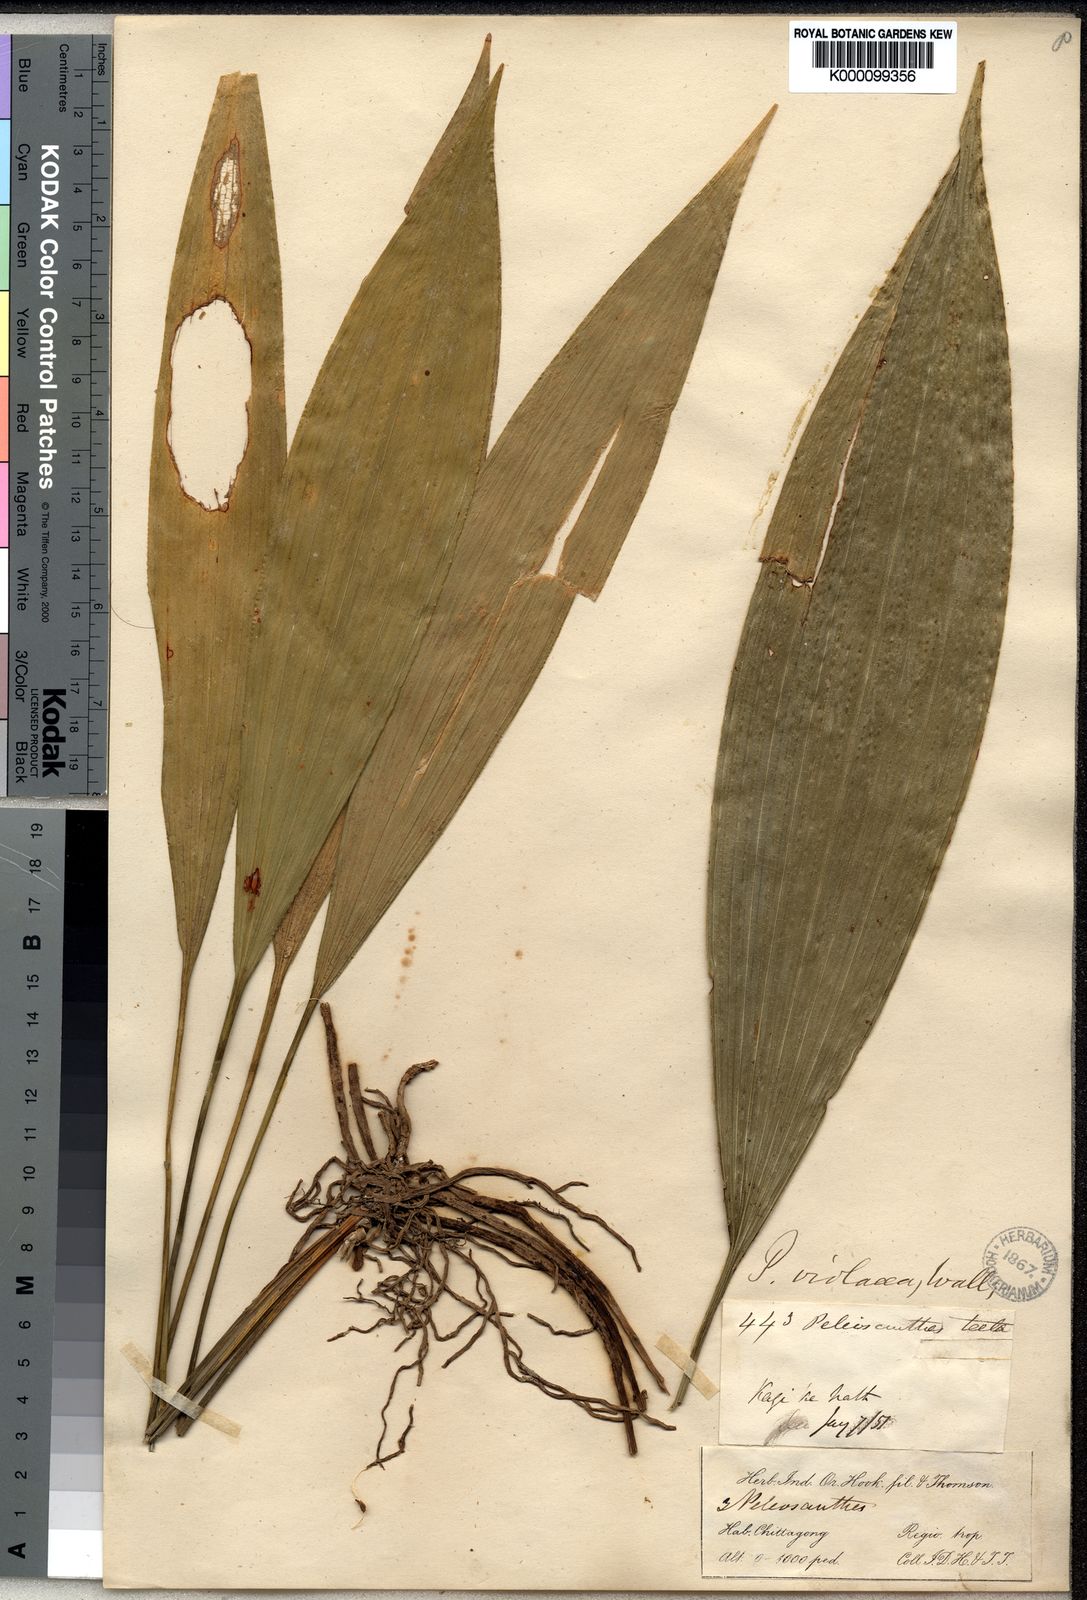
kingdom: Plantae
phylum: Tracheophyta
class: Liliopsida
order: Asparagales
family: Asparagaceae
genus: Peliosanthes
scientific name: Peliosanthes teta
